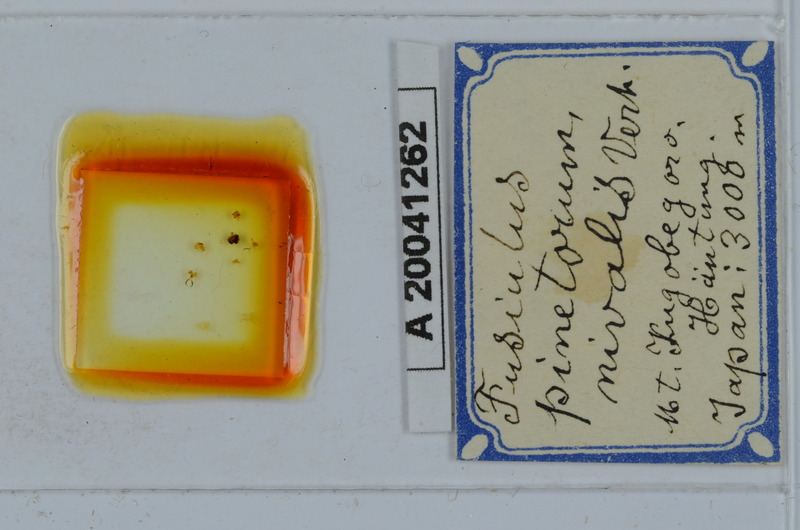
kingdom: Animalia
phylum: Arthropoda
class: Diplopoda
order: Julida
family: Julidae
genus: Anaulaciulus
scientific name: Anaulaciulus pinetorum
